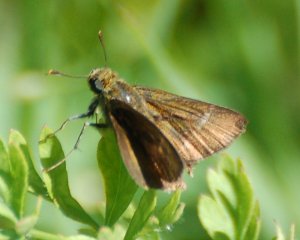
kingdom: Animalia
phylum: Arthropoda
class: Insecta
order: Lepidoptera
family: Hesperiidae
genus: Euphyes
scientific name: Euphyes vestris
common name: Dun Skipper
